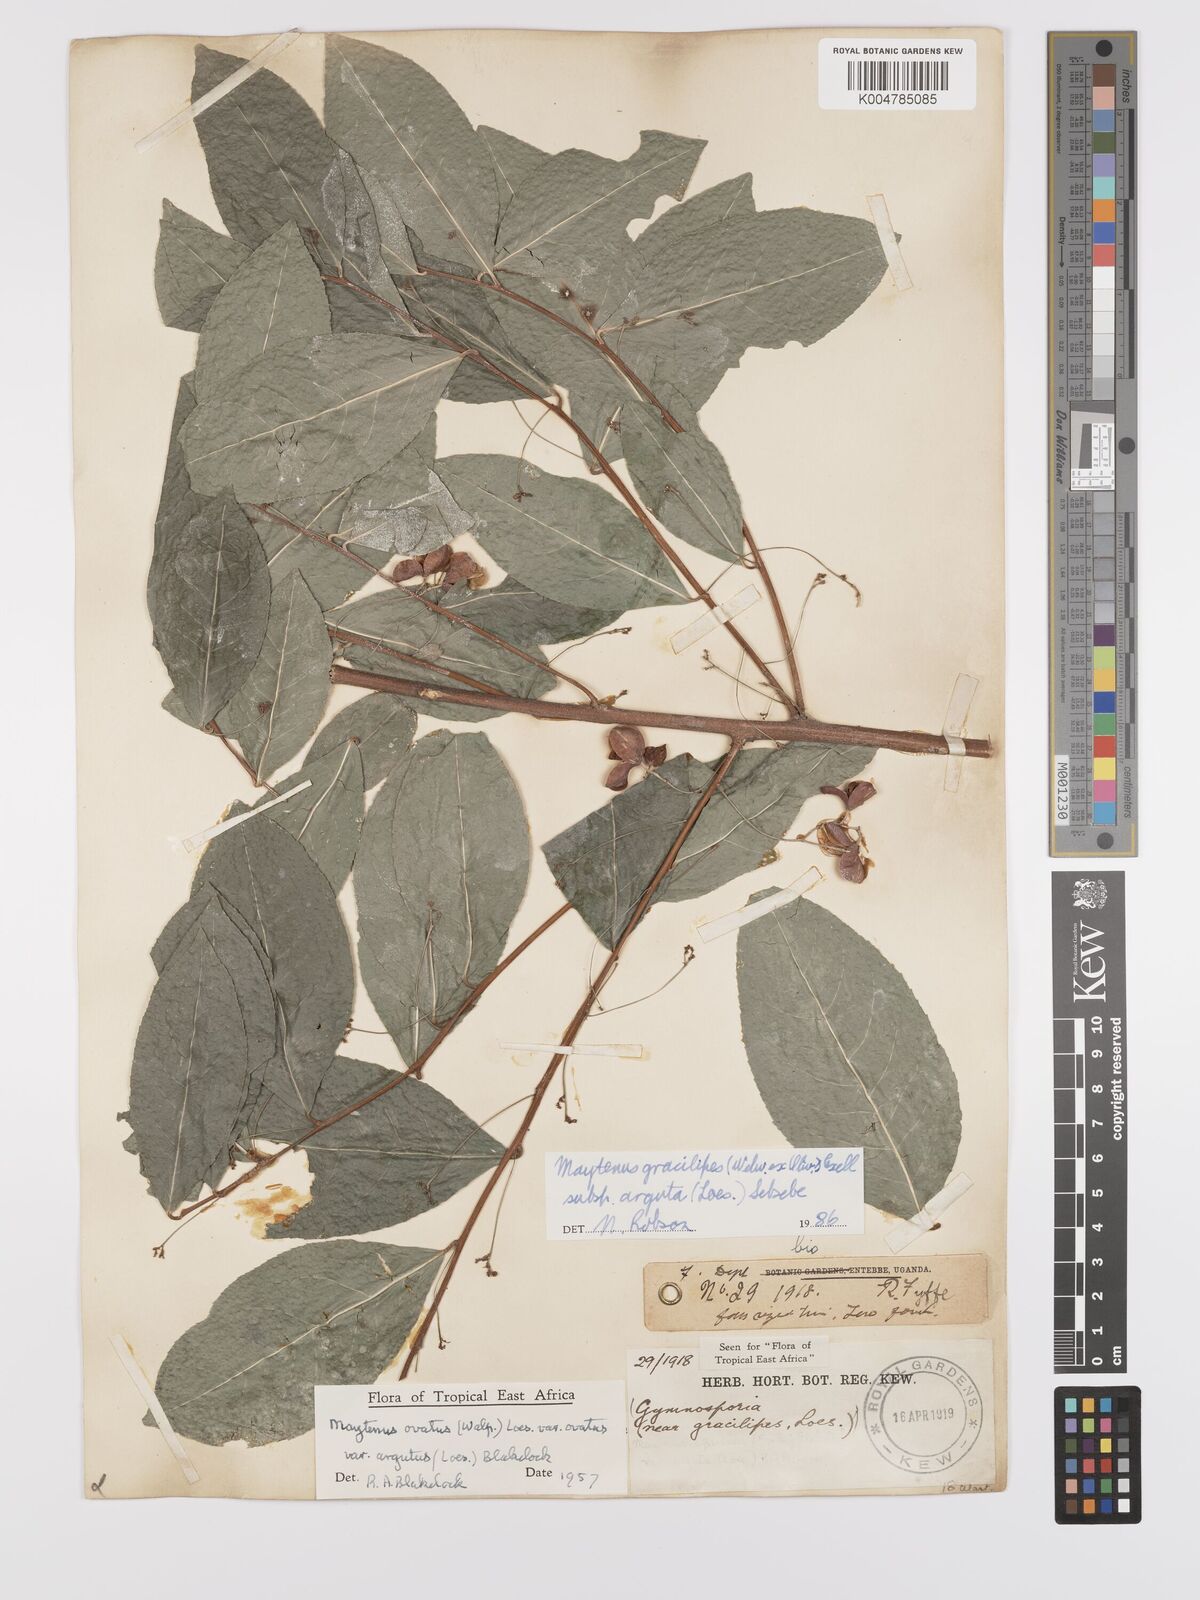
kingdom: Plantae
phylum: Tracheophyta
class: Magnoliopsida
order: Celastrales
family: Celastraceae
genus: Gymnosporia
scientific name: Gymnosporia gracilipes
